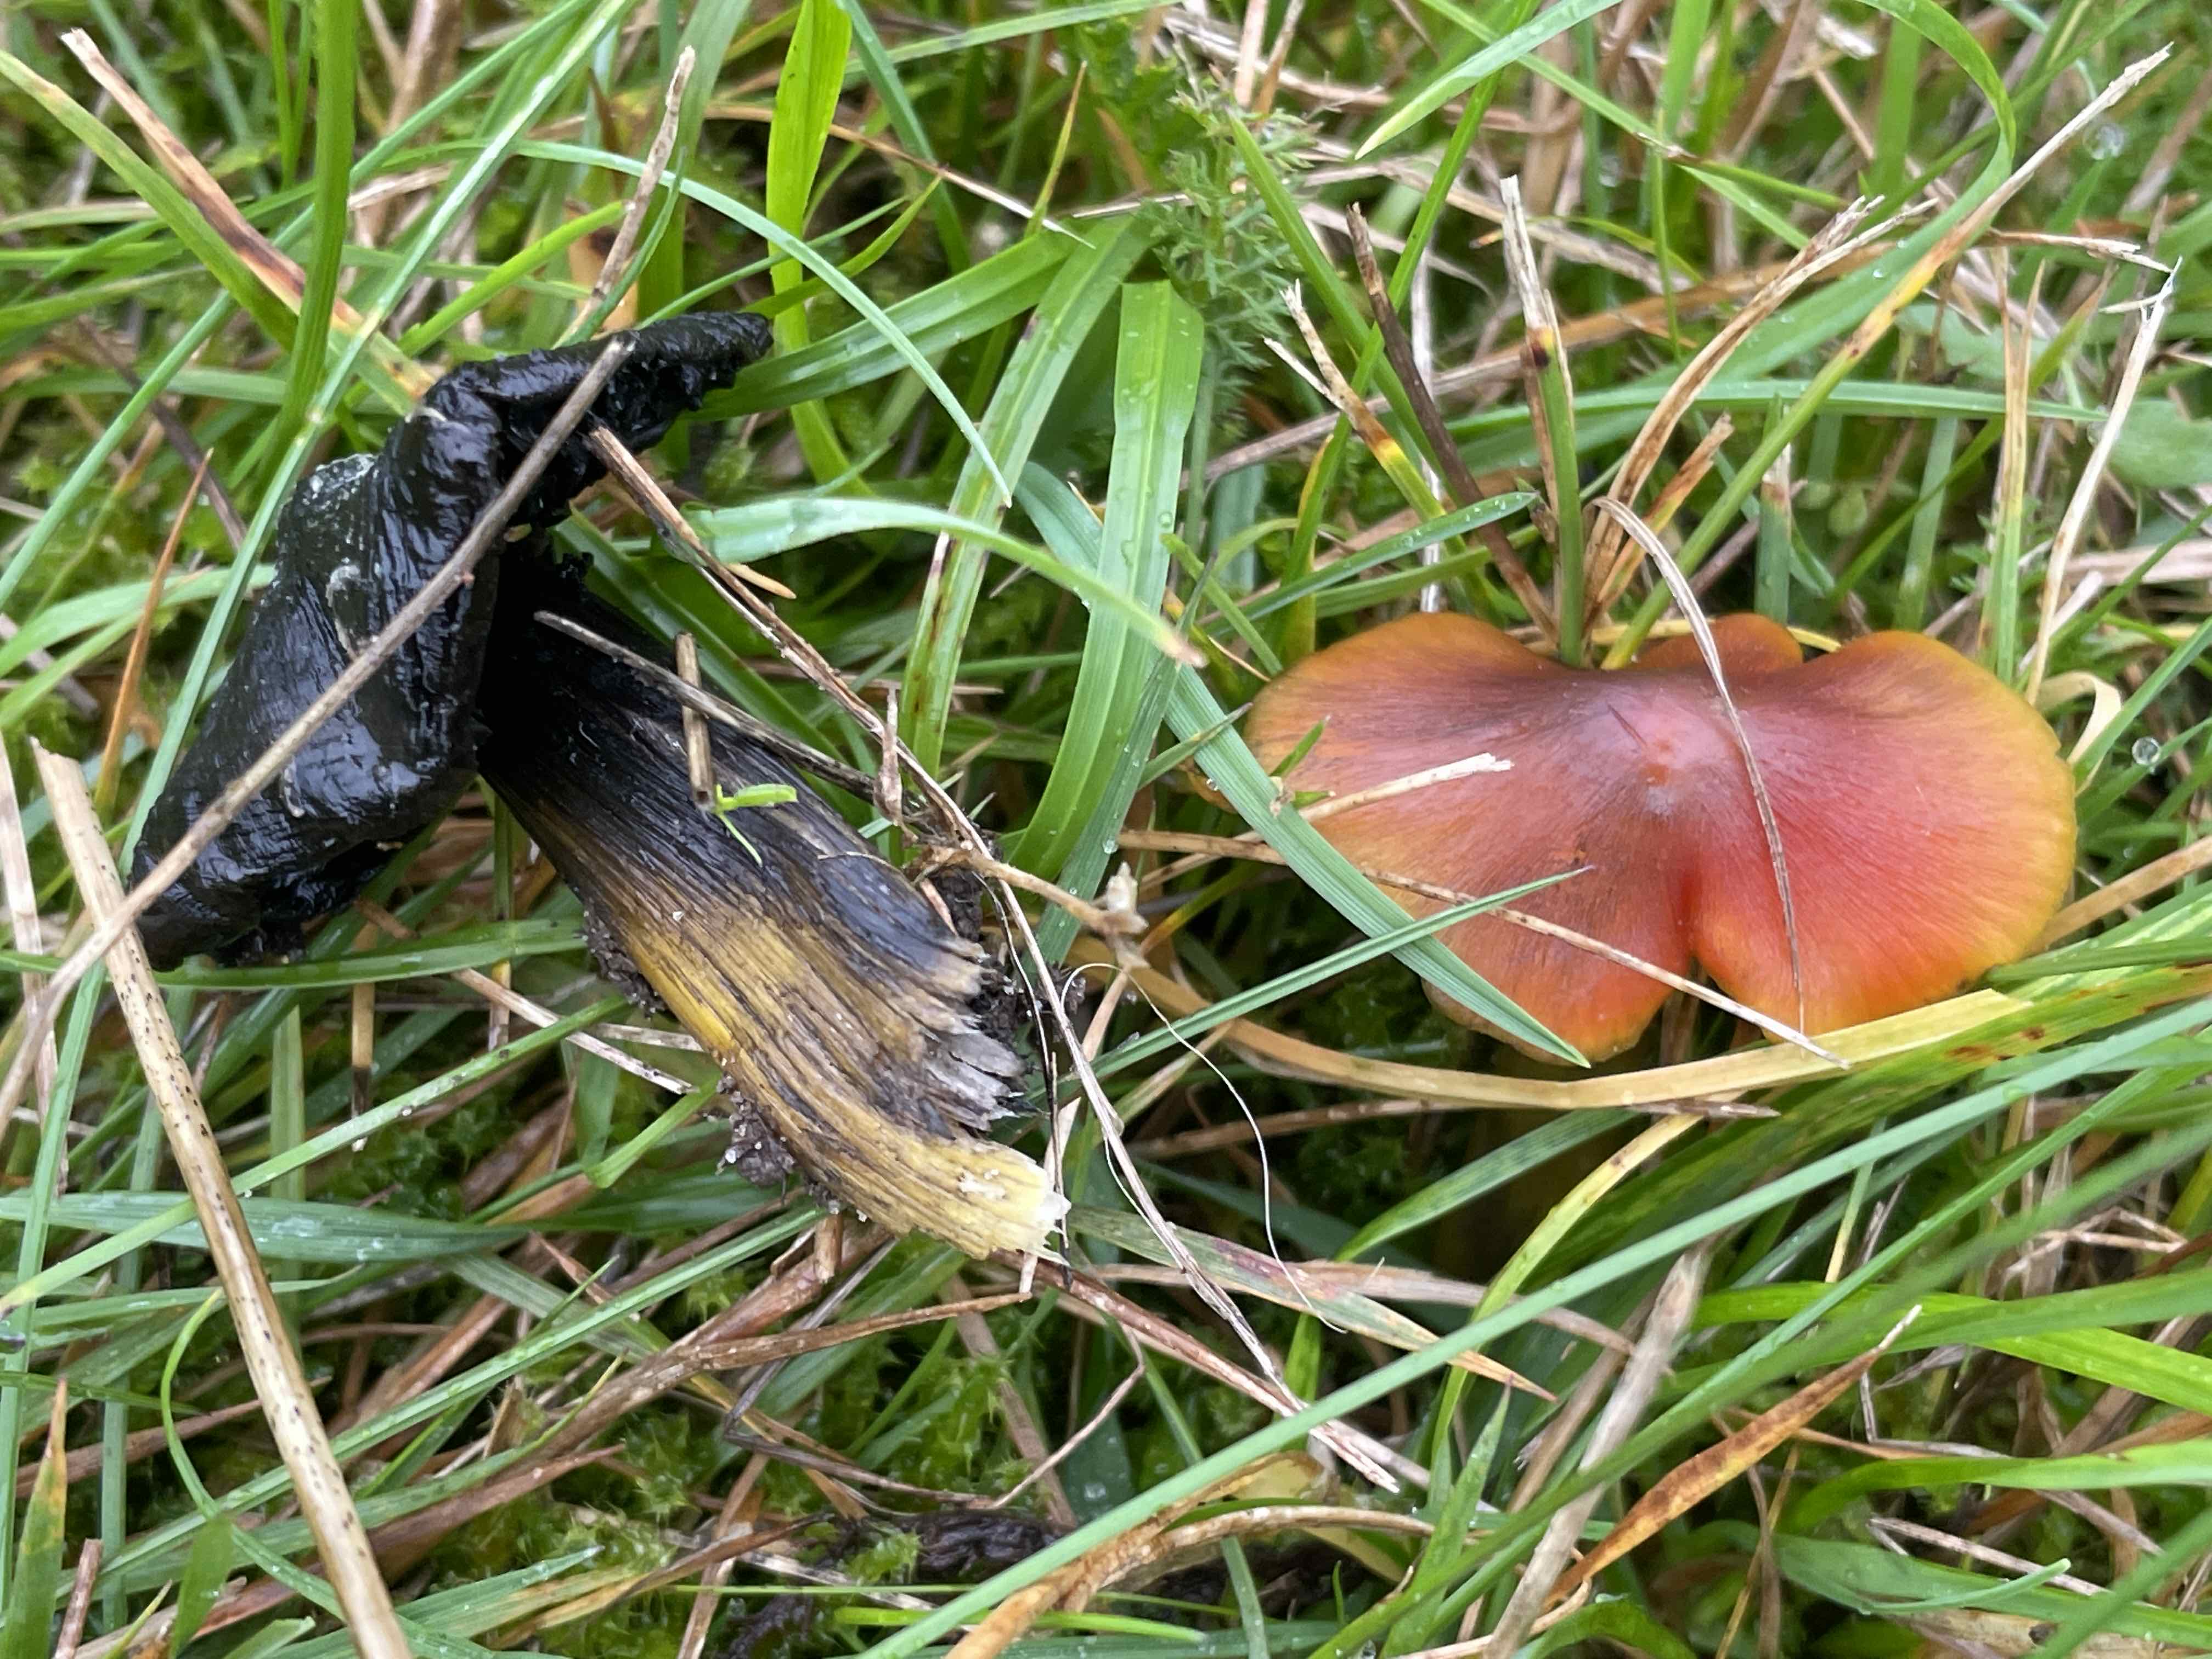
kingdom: Fungi
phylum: Basidiomycota
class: Agaricomycetes
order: Agaricales
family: Hygrophoraceae
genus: Hygrocybe
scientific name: Hygrocybe conica
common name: kegle-vokshat
